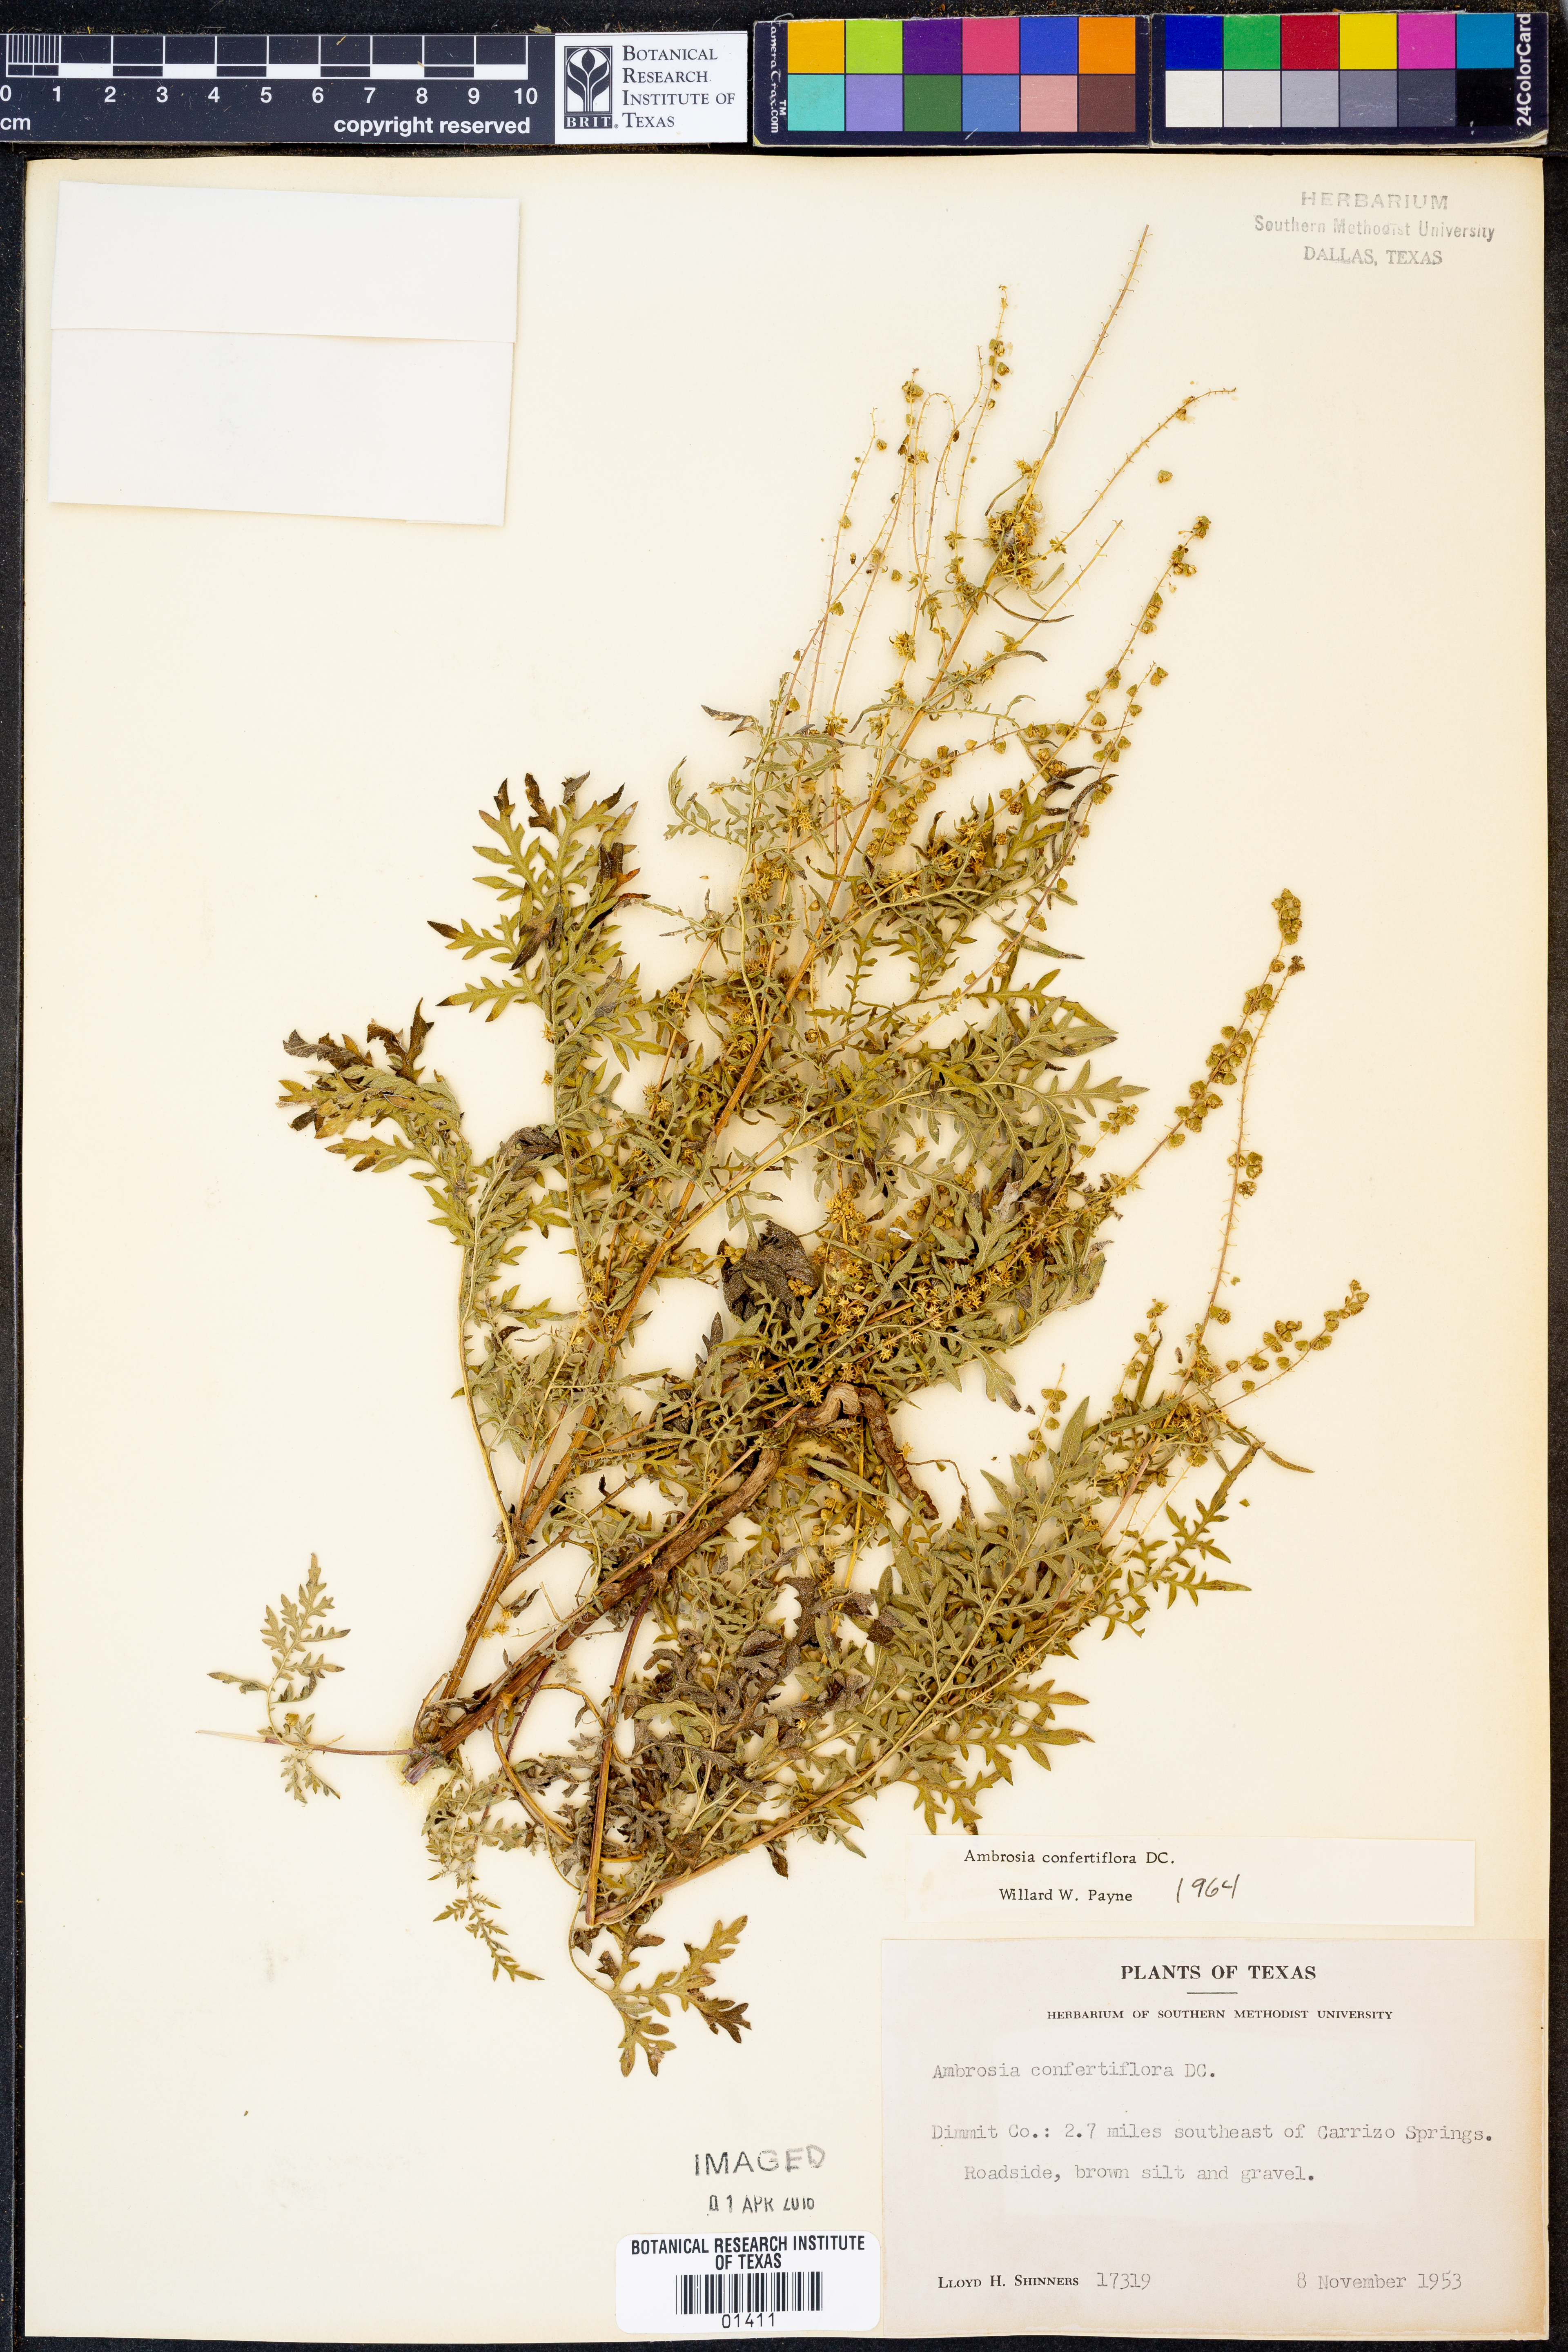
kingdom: Plantae
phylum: Tracheophyta
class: Magnoliopsida
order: Asterales
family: Asteraceae
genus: Ambrosia
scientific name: Ambrosia confertiflora
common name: Bur ragweed
